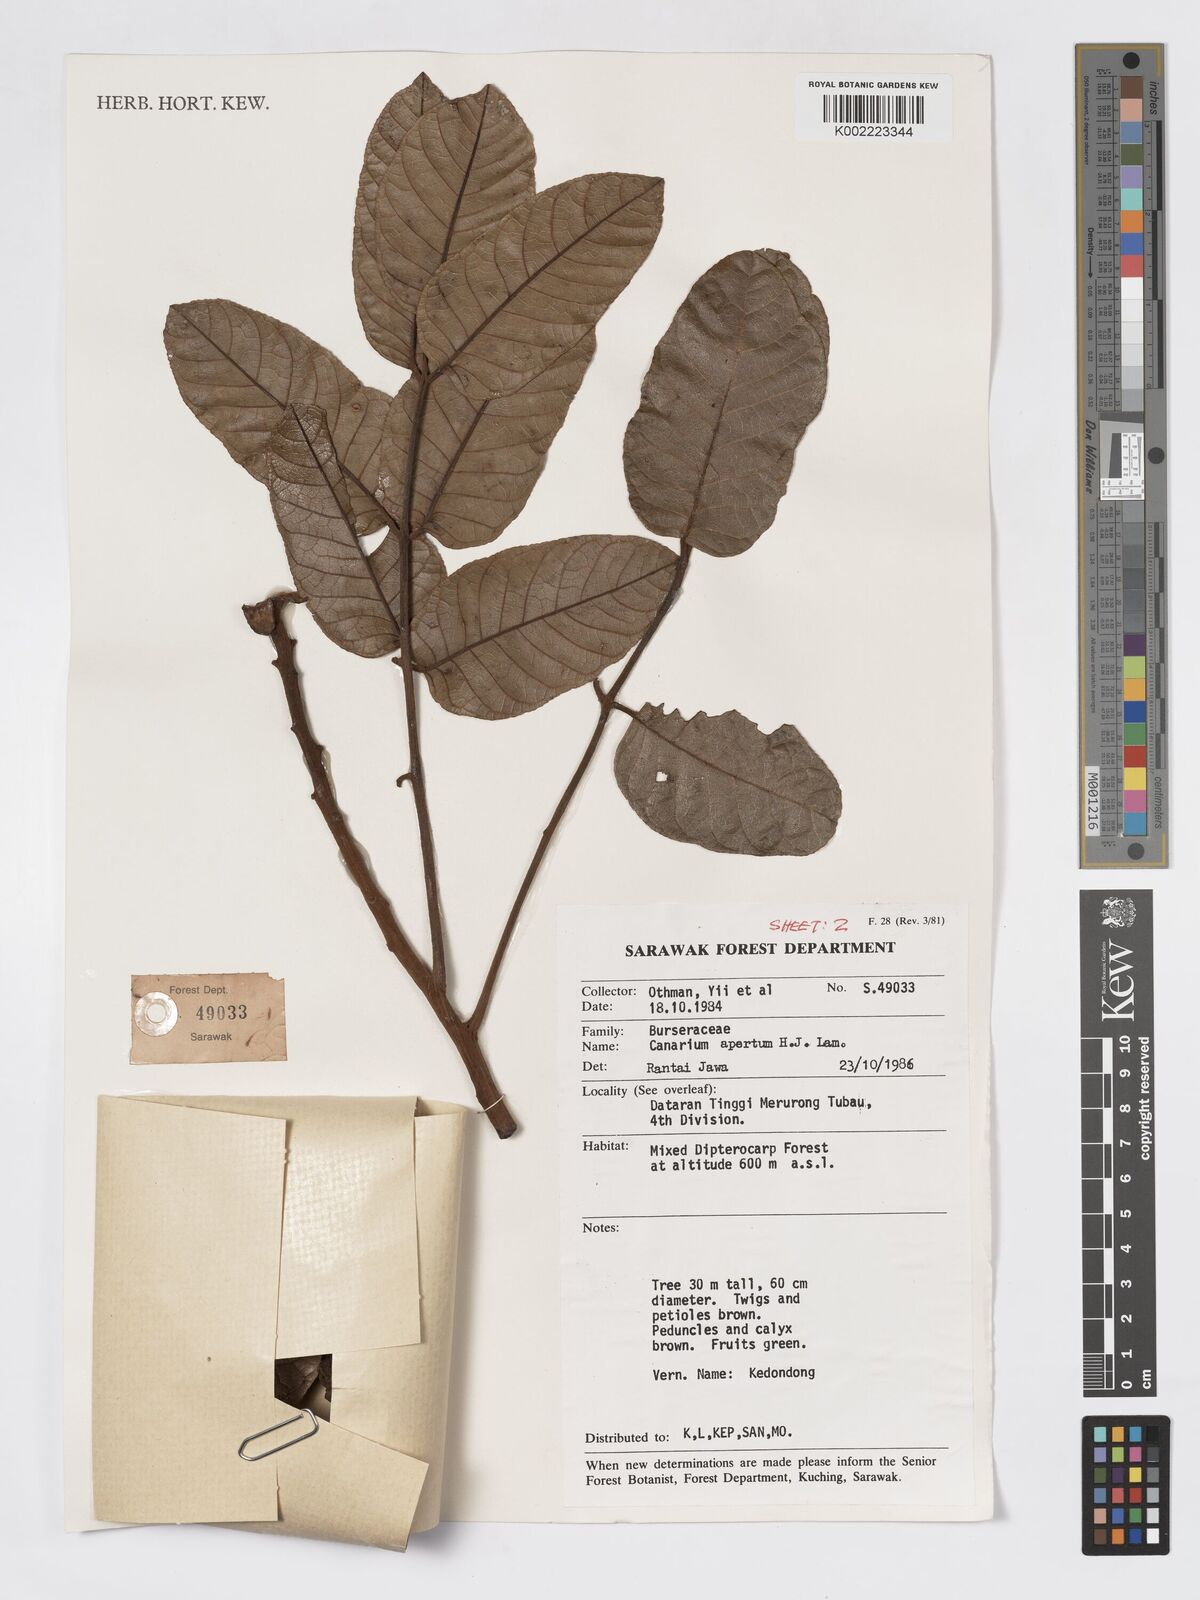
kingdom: Plantae
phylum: Tracheophyta
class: Magnoliopsida
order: Sapindales
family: Burseraceae
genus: Canarium
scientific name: Canarium apertum
